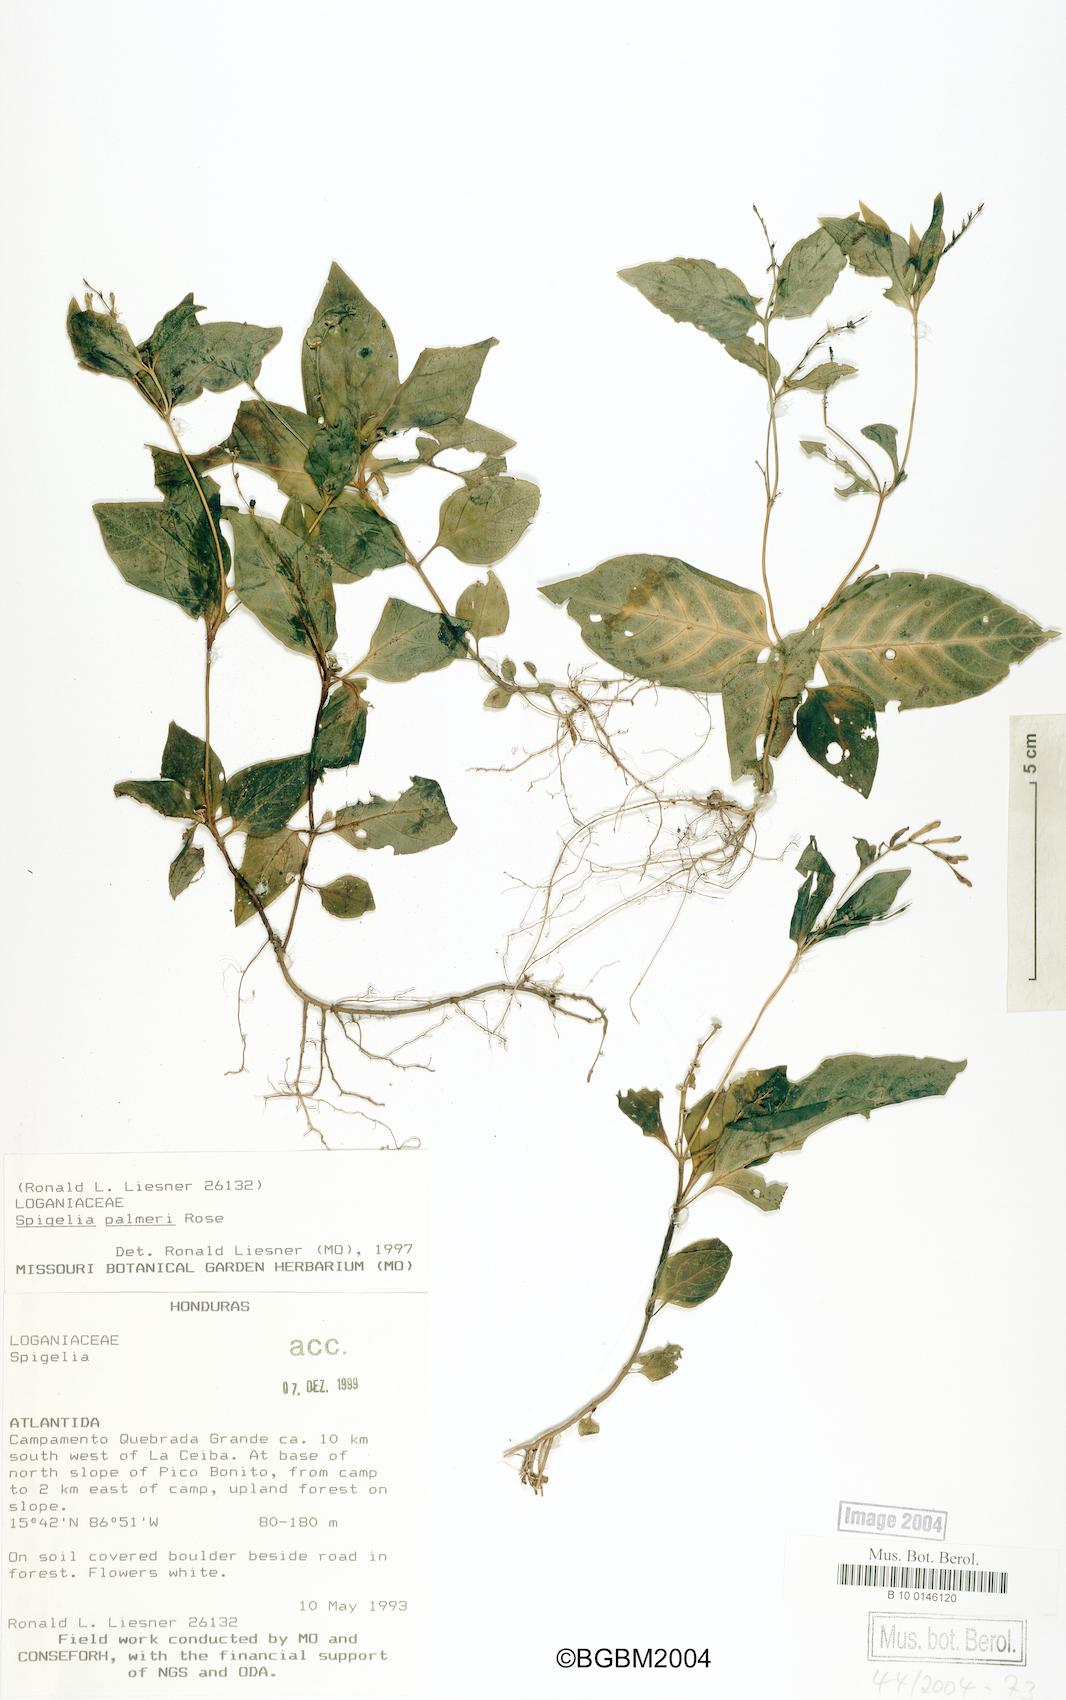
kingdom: Plantae
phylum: Tracheophyta
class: Magnoliopsida
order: Gentianales
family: Loganiaceae
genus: Spigelia
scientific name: Spigelia humboldtiana
